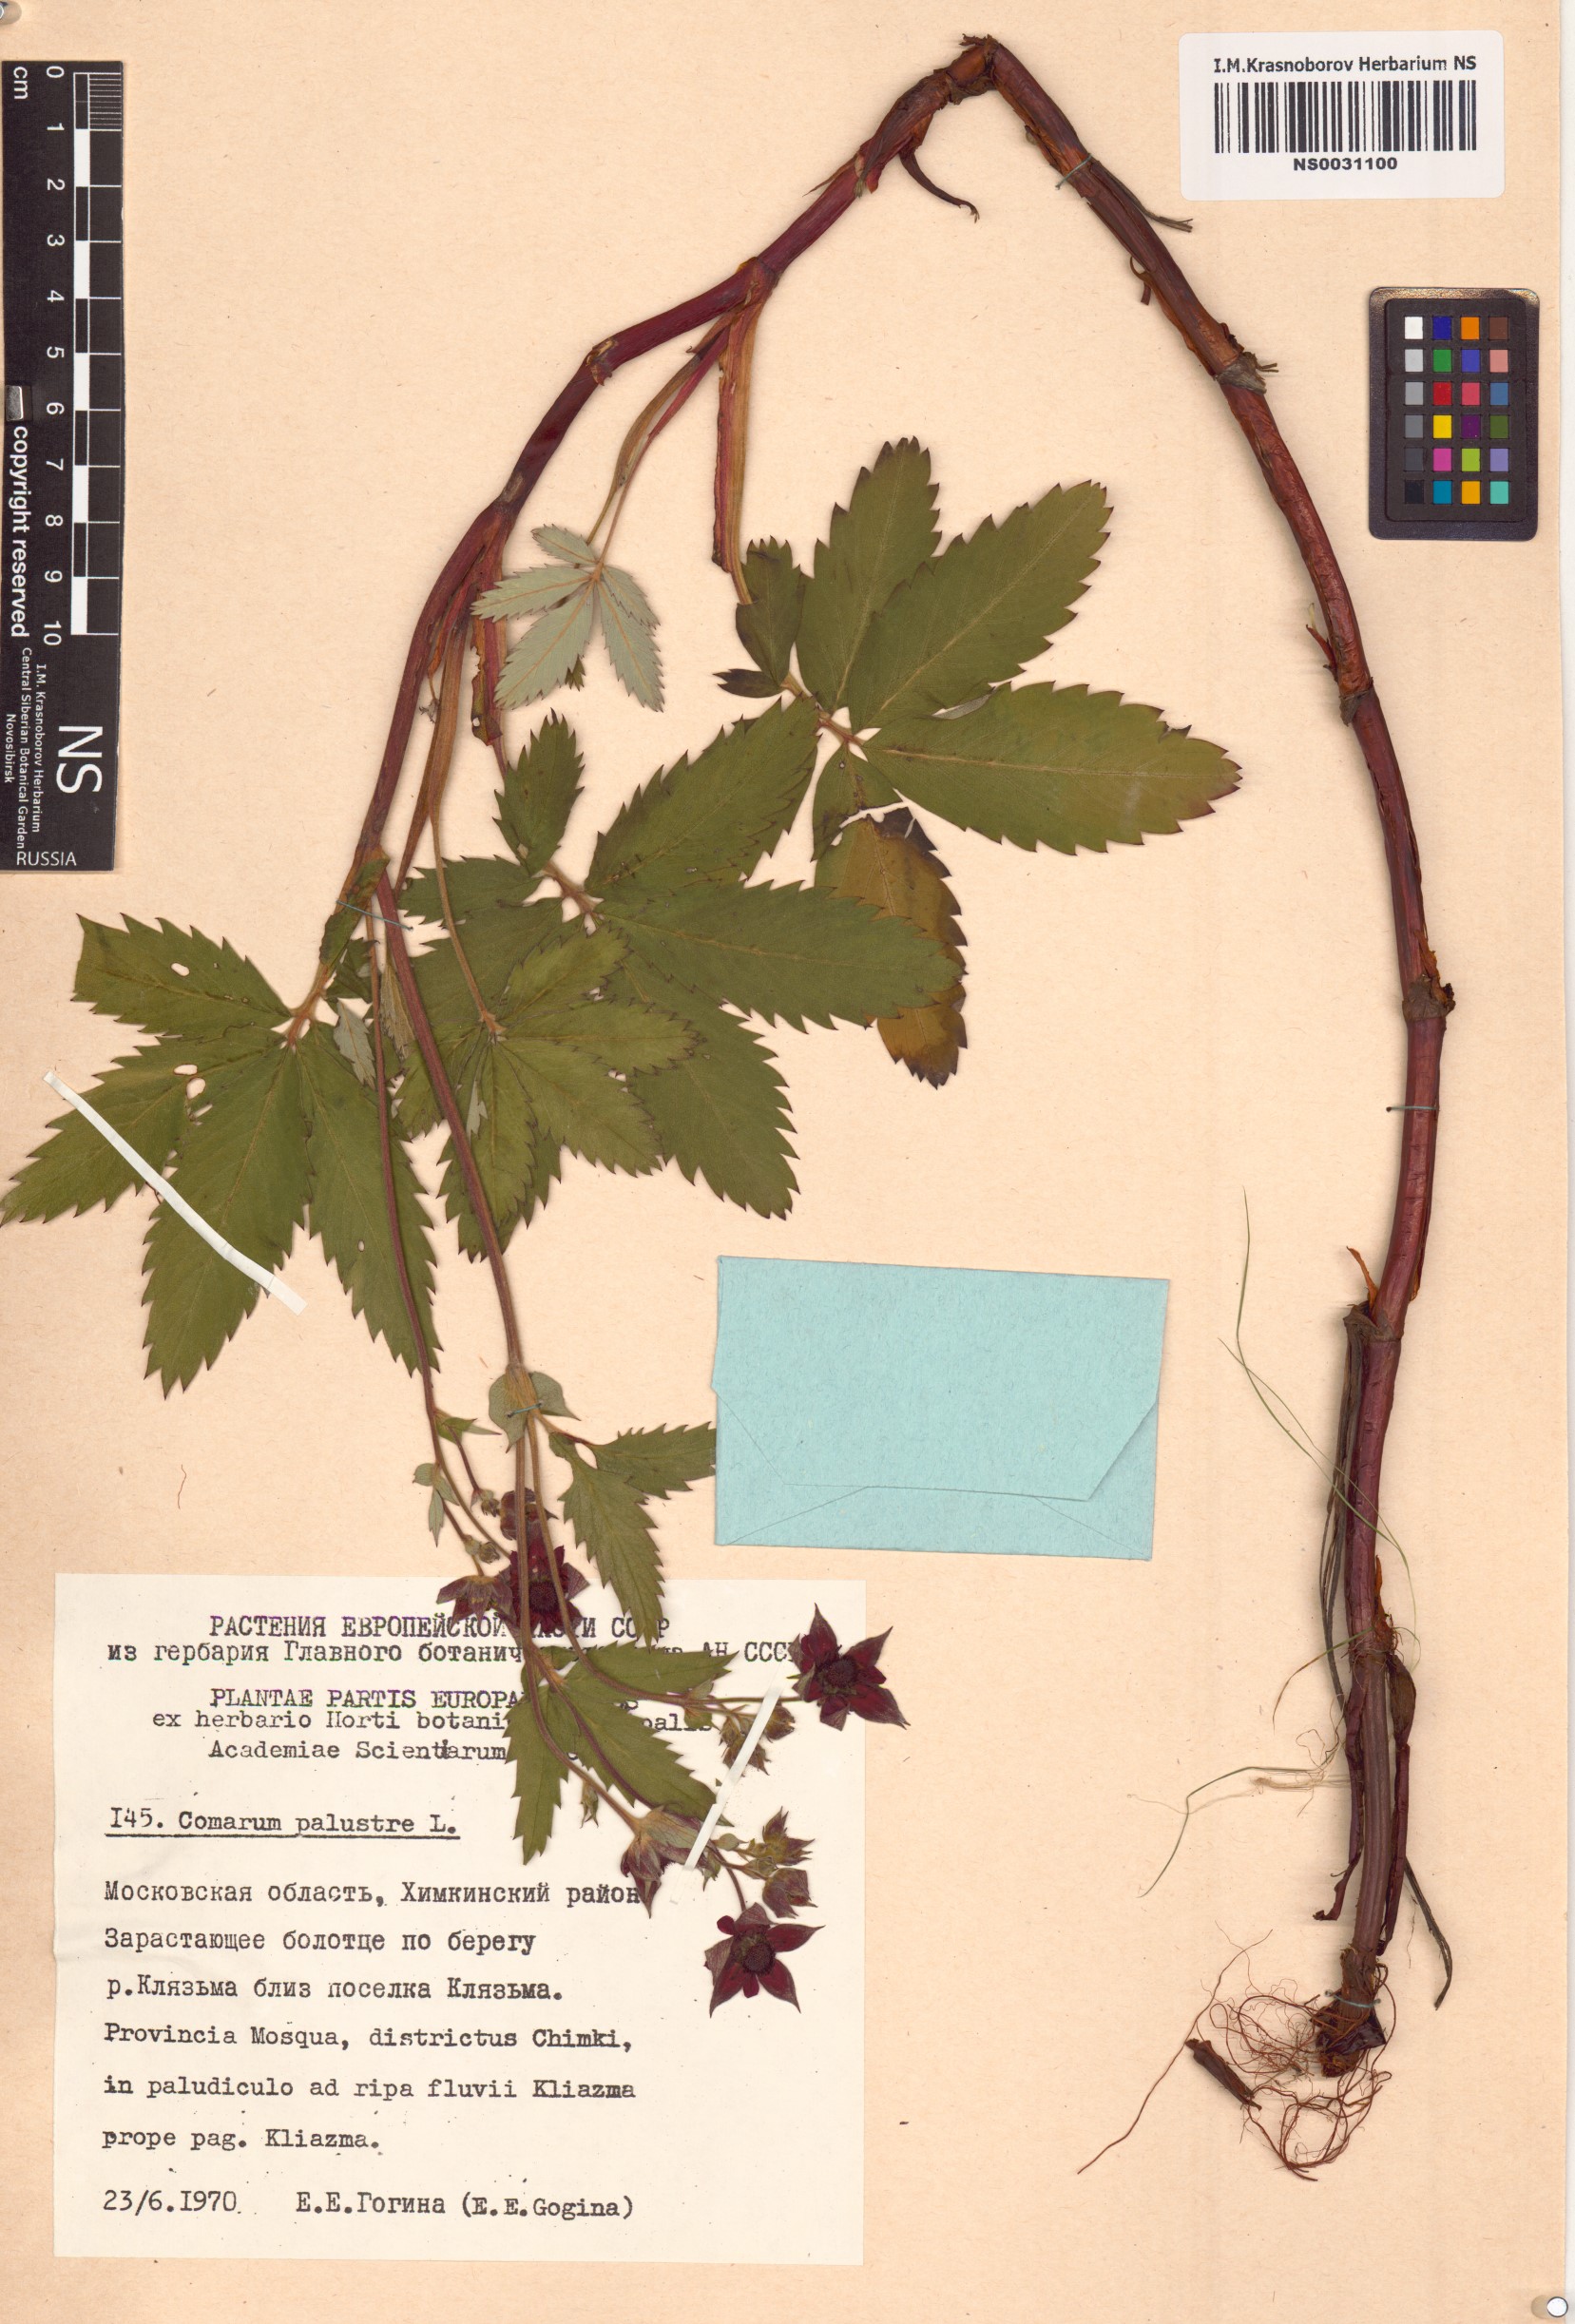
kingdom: Plantae
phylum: Tracheophyta
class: Magnoliopsida
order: Rosales
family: Rosaceae
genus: Comarum
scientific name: Comarum palustre
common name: Marsh cinquefoil
